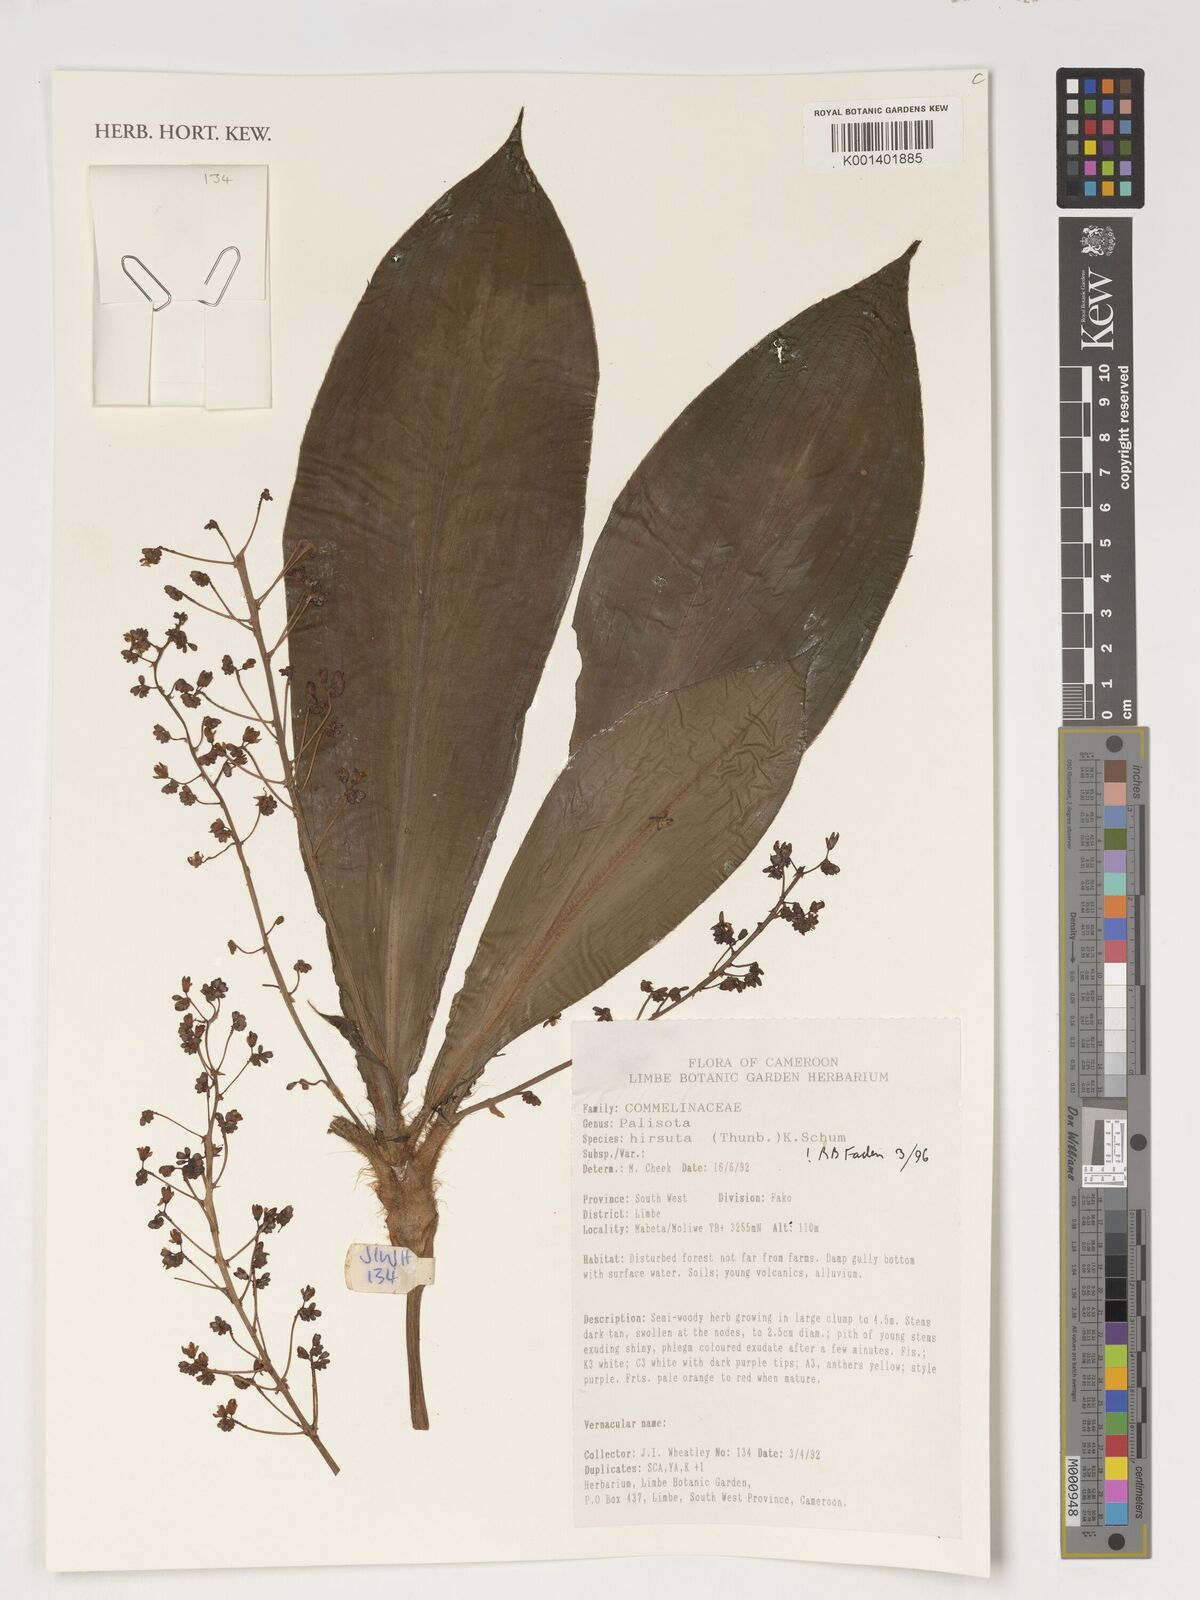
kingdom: Plantae
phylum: Tracheophyta
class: Liliopsida
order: Commelinales
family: Commelinaceae
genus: Palisota
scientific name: Palisota hirsuta
